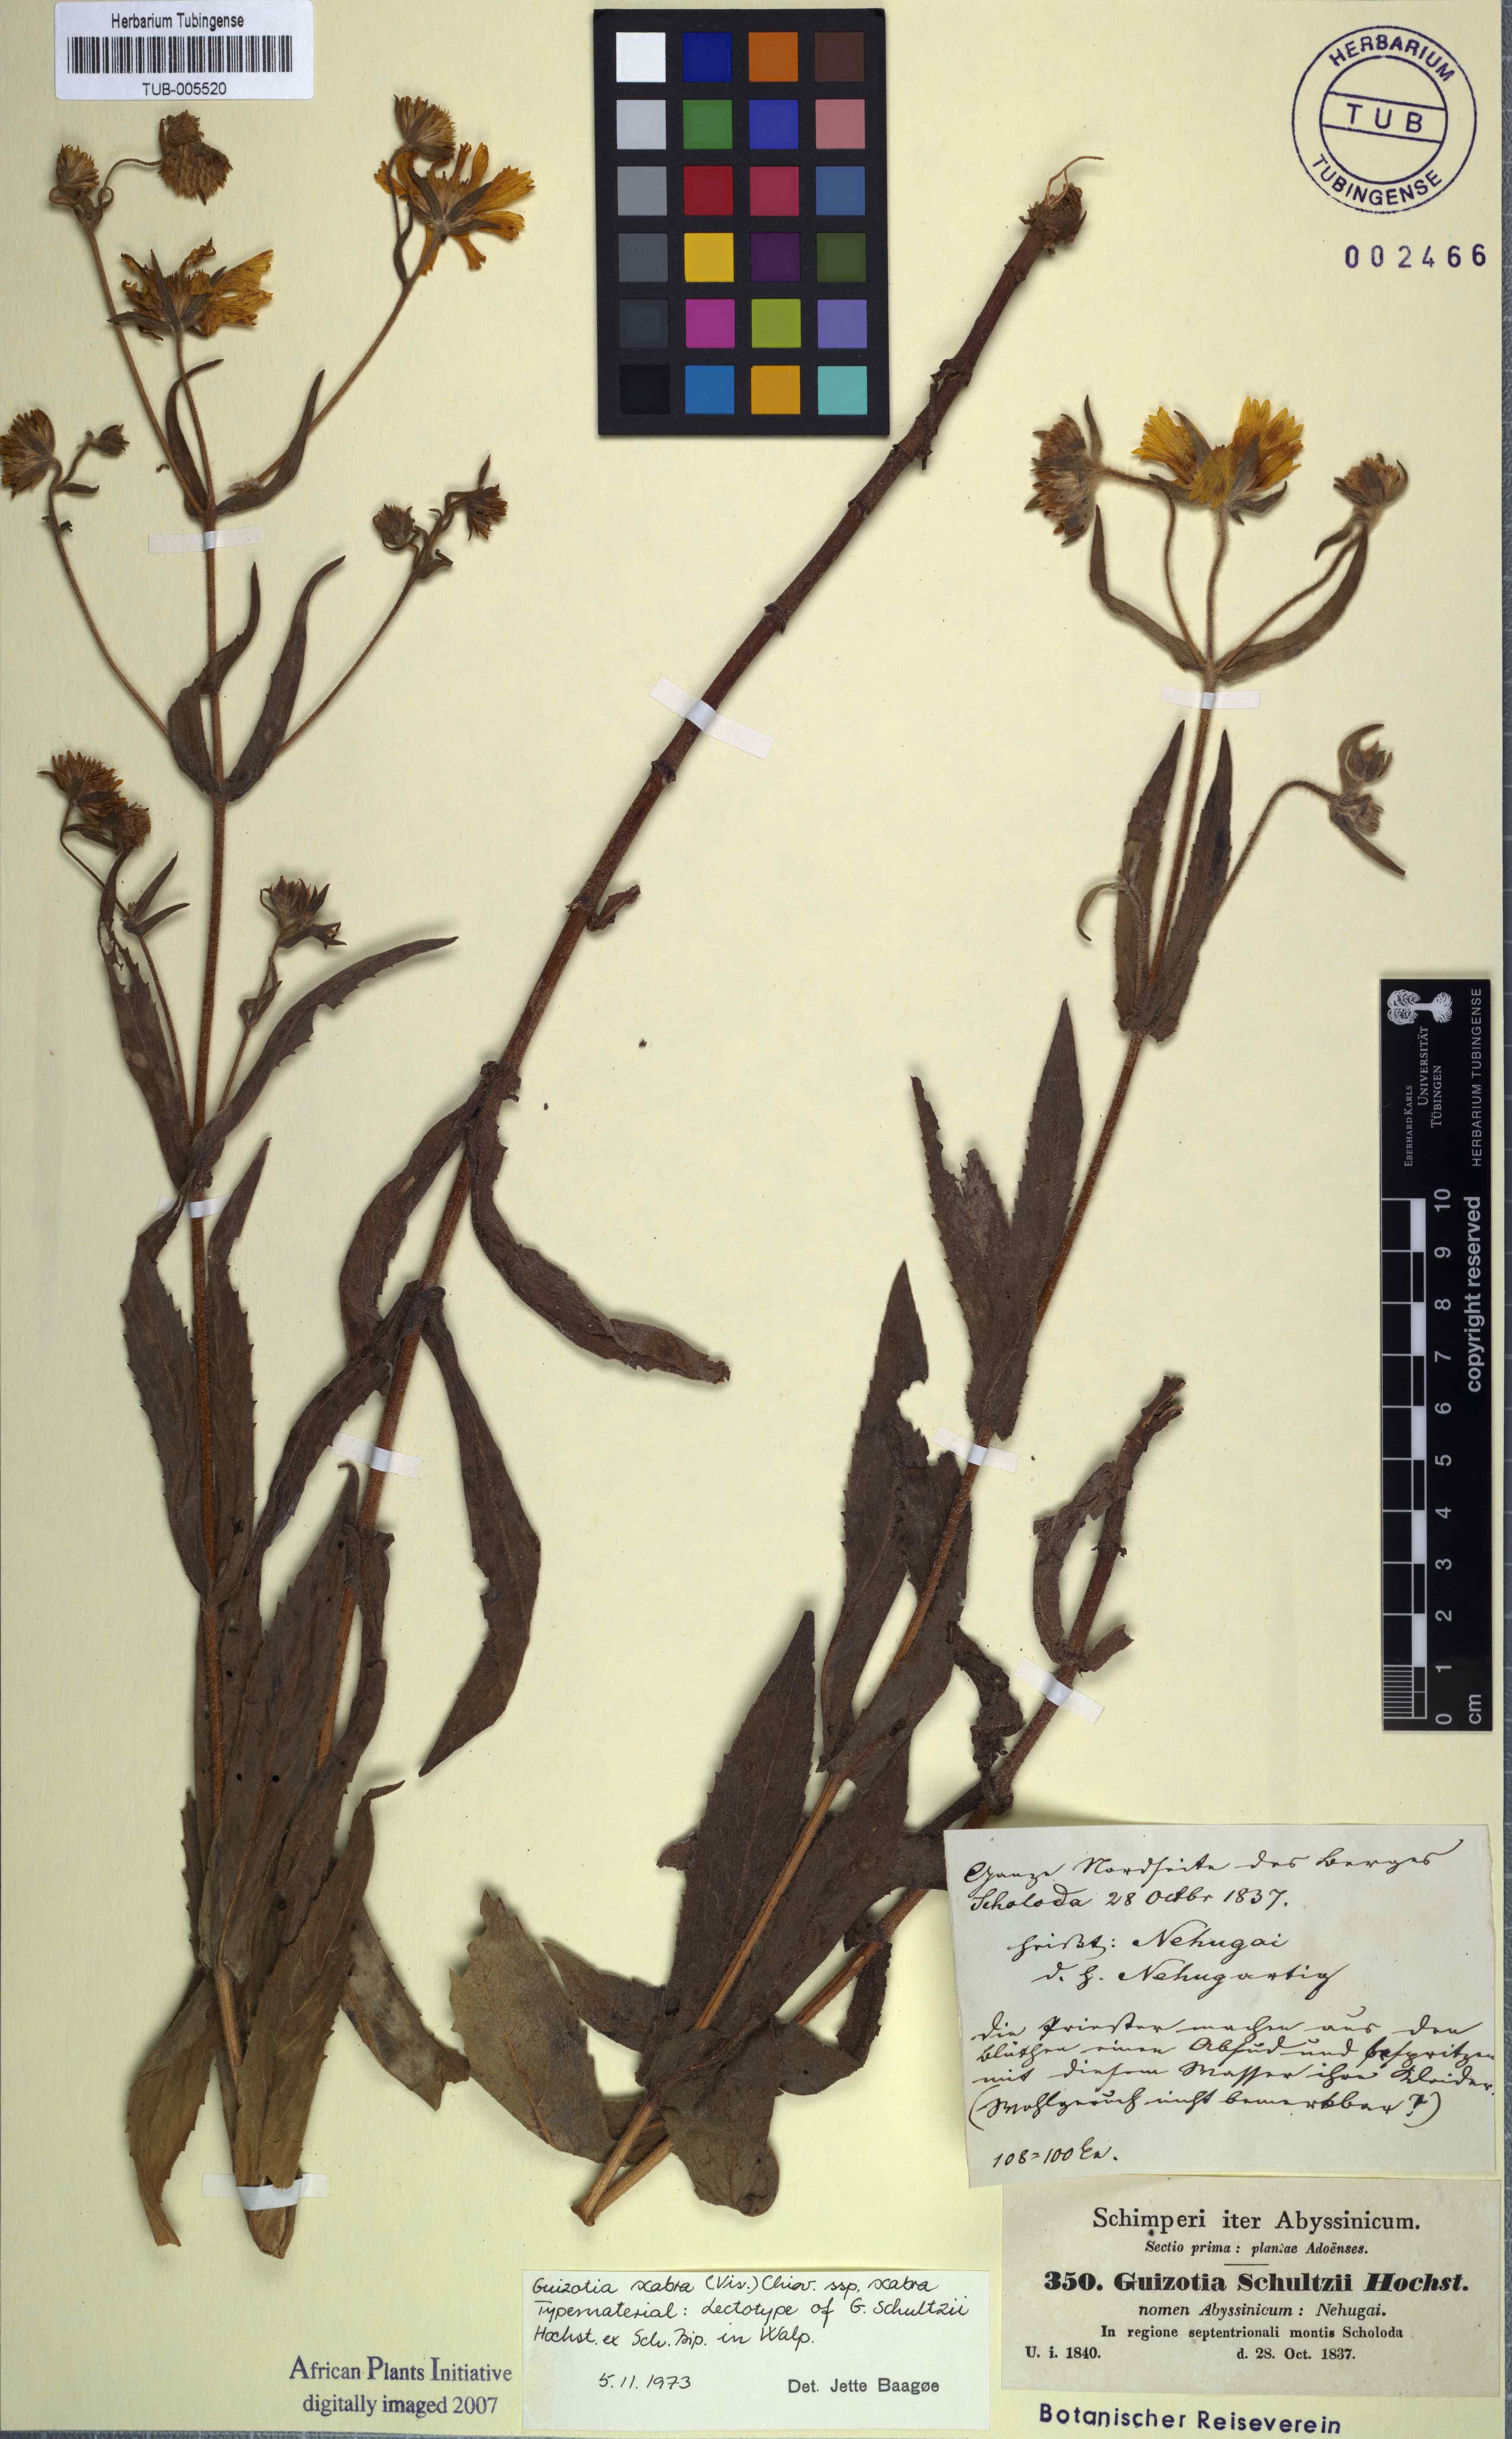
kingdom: Plantae
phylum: Tracheophyta
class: Magnoliopsida
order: Asterales
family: Asteraceae
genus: Guizotia
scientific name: Guizotia scabra
